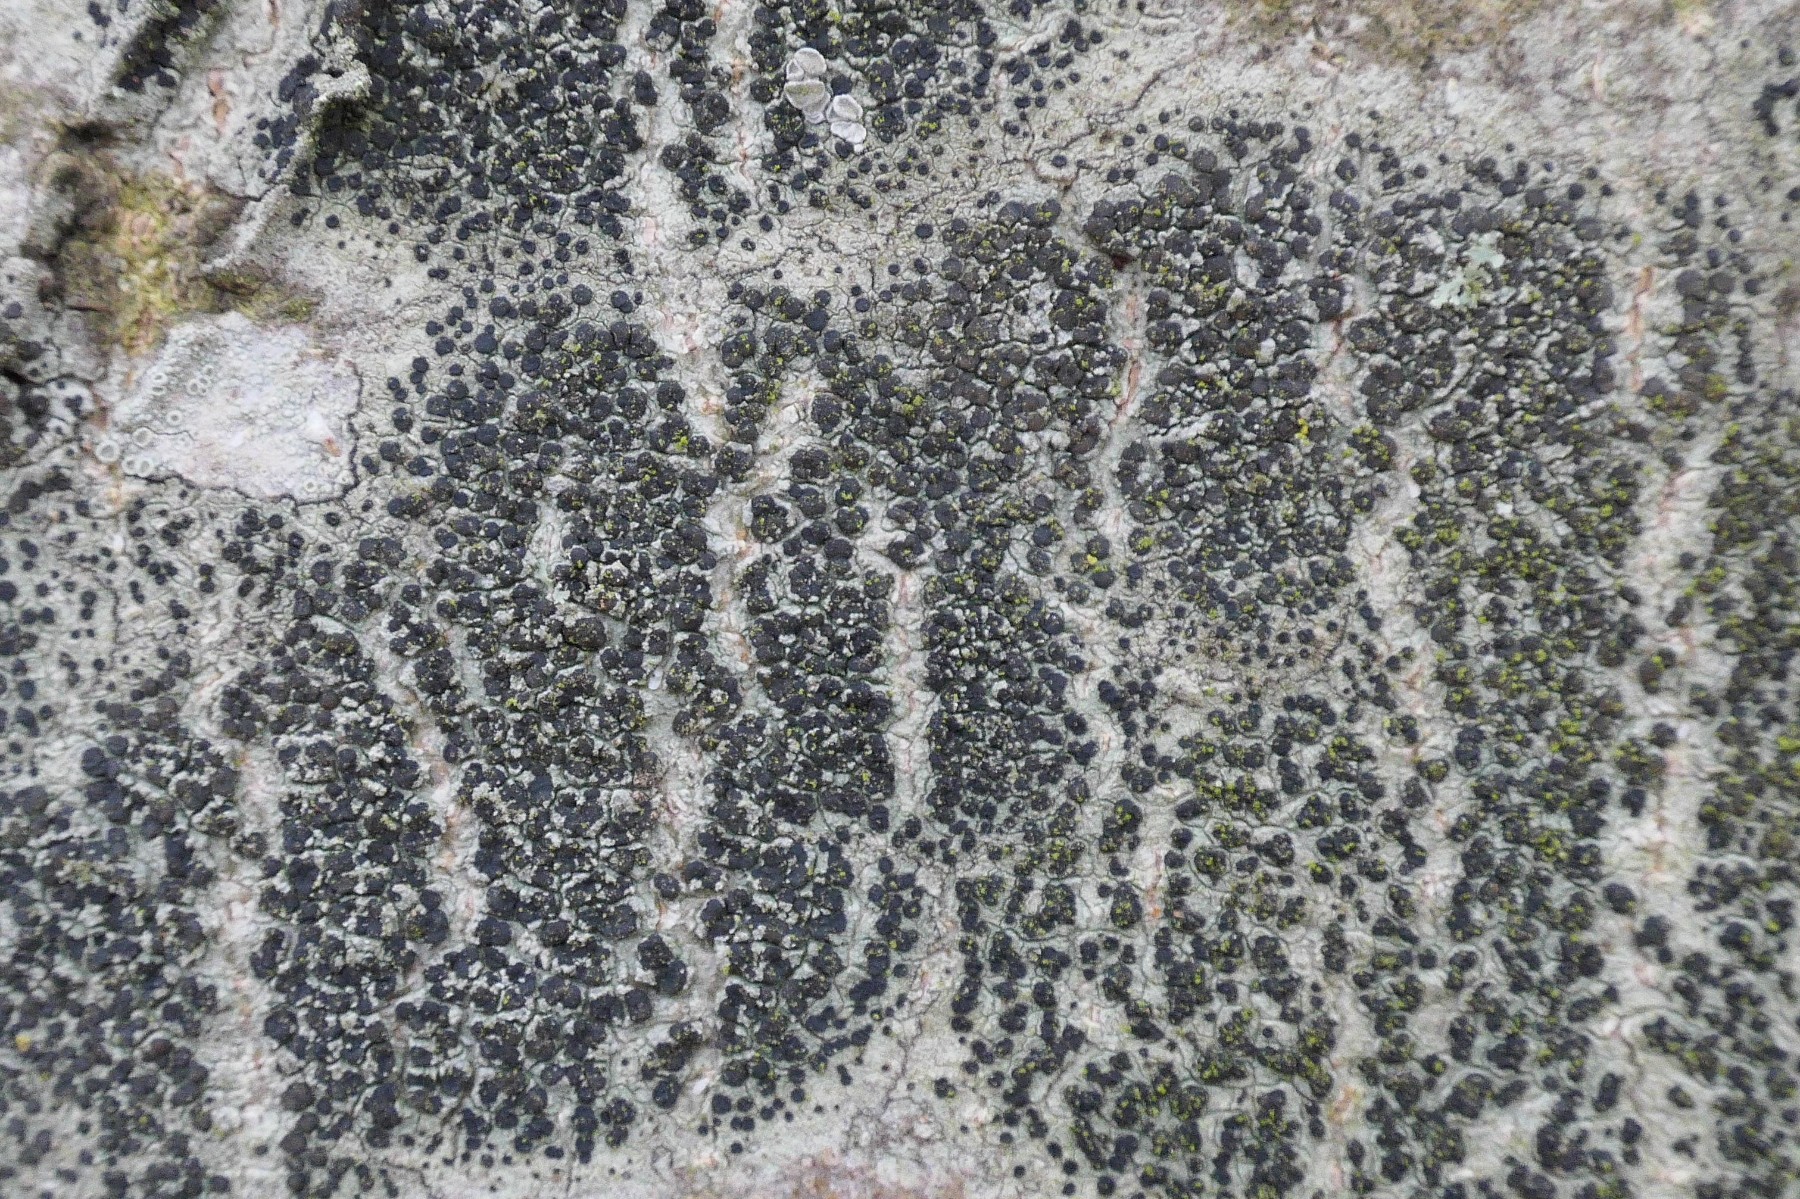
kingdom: Fungi
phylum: Ascomycota
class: Lecanoromycetes
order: Lecanorales
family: Lecanoraceae
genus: Lecidella
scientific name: Lecidella elaeochroma
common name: grågrøn skivelav
